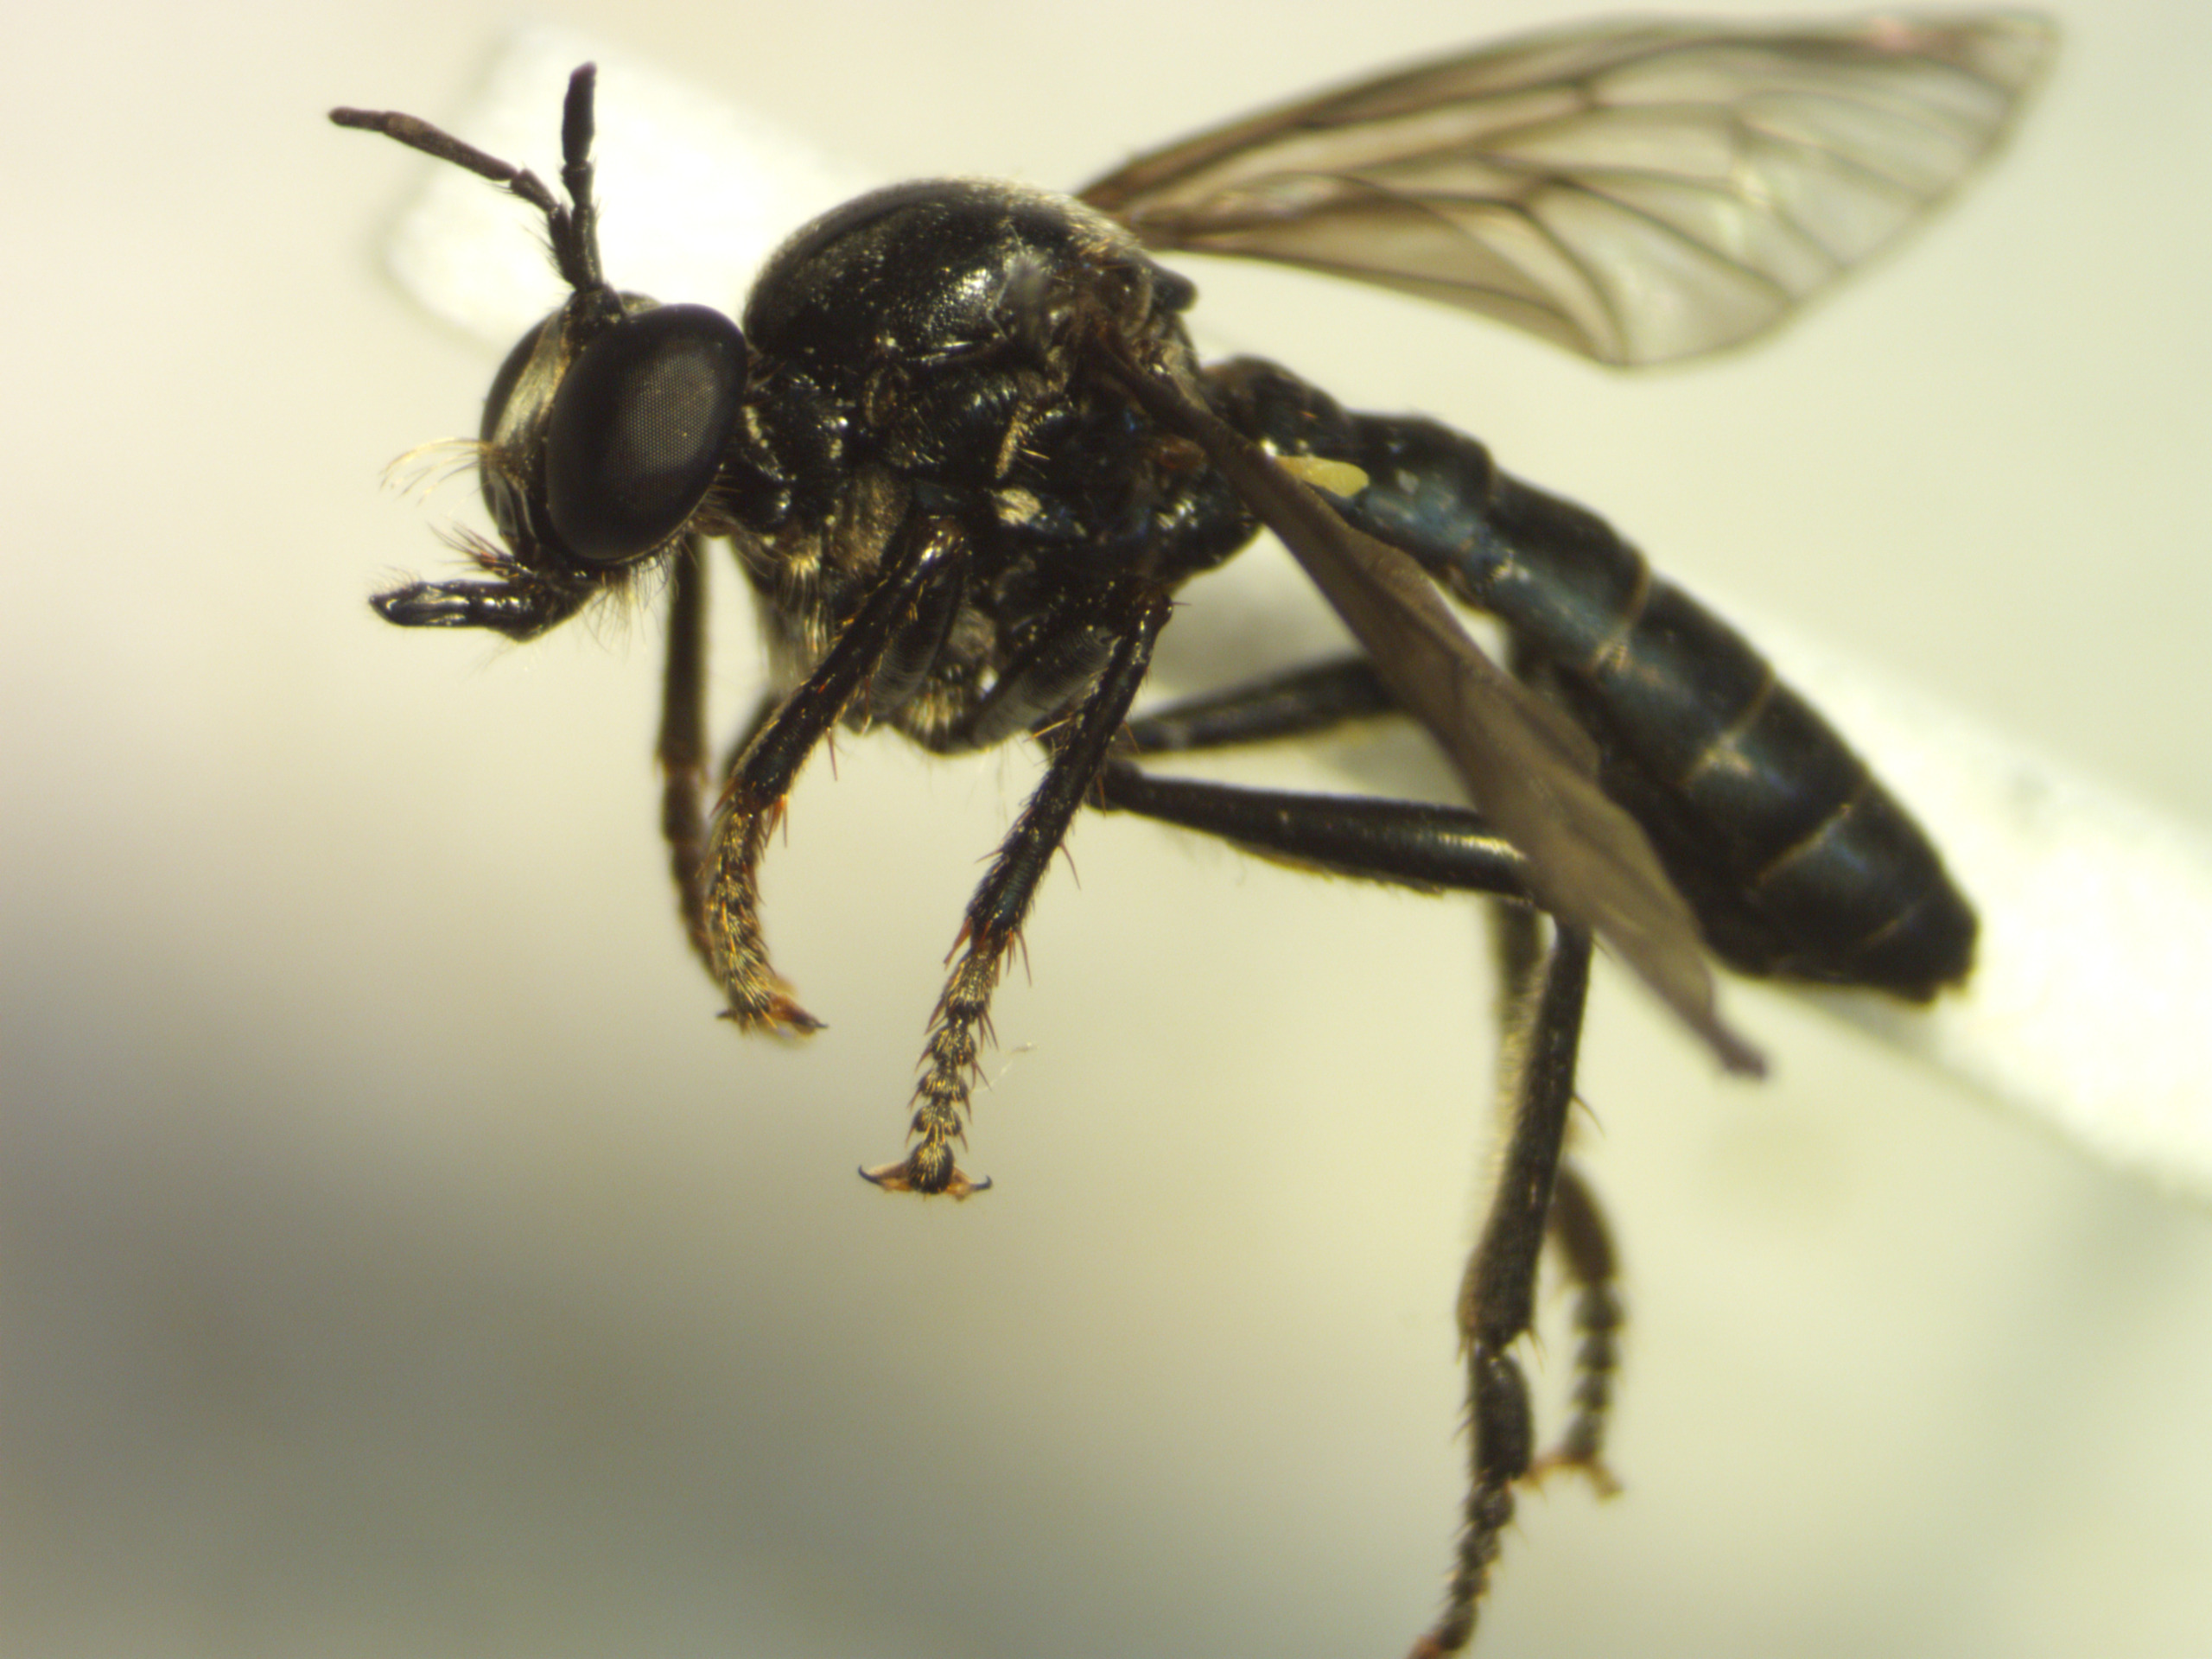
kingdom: Animalia
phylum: Arthropoda
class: Insecta
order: Diptera
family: Asilidae
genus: Dioctria
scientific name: Dioctria atricapilla
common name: Sort engrovflue
